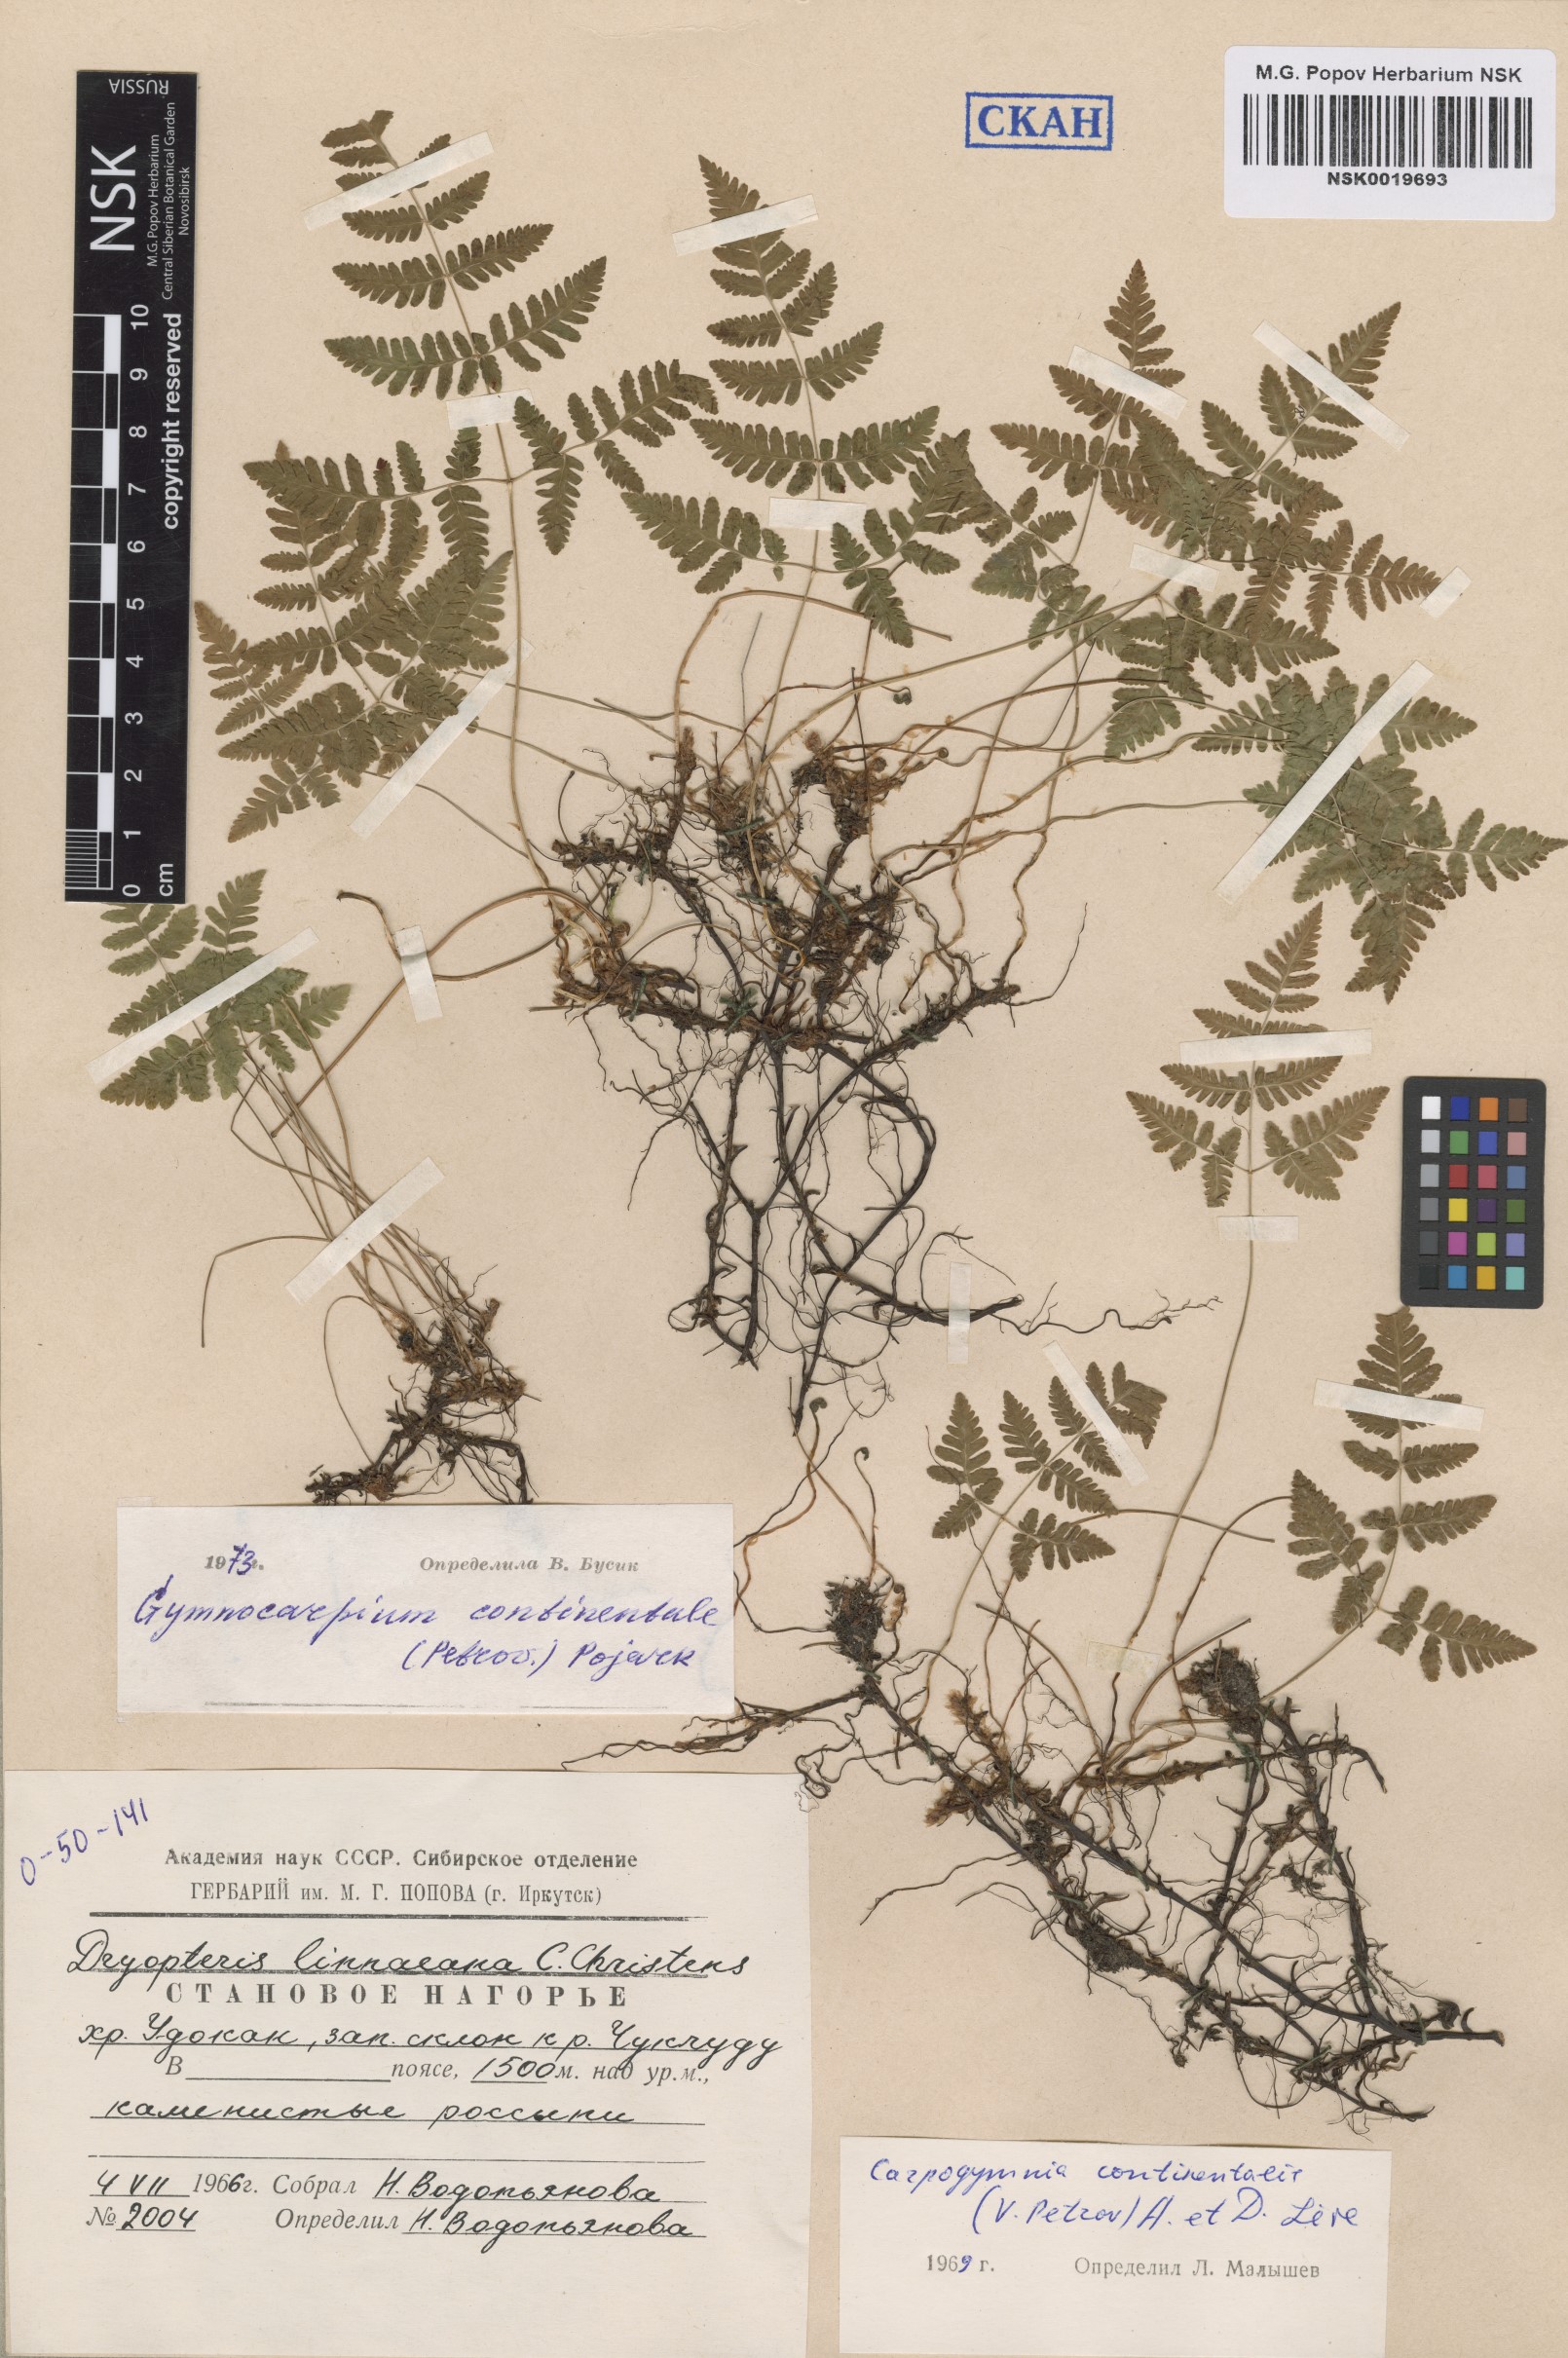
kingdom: Plantae
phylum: Tracheophyta
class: Polypodiopsida
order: Polypodiales
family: Cystopteridaceae
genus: Gymnocarpium
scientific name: Gymnocarpium continentale
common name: Asian oak fern
